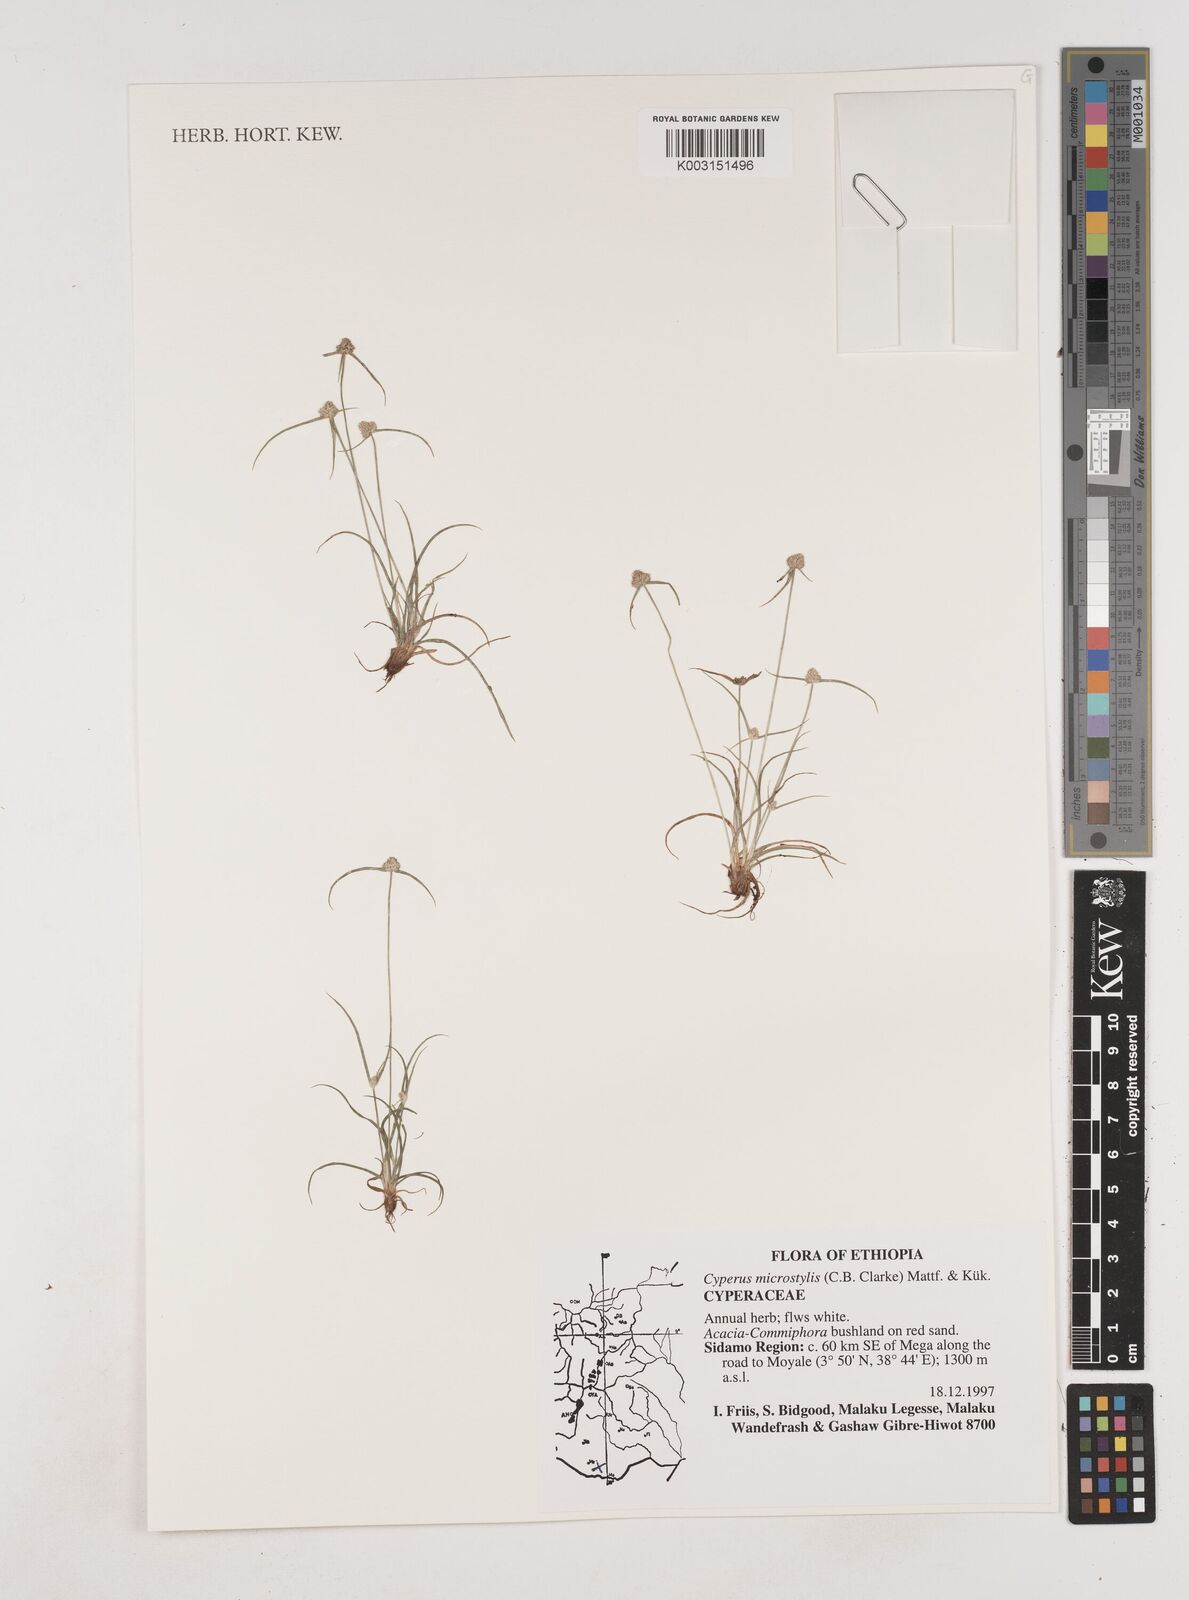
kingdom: Plantae
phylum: Tracheophyta
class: Liliopsida
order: Poales
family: Cyperaceae
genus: Cyperus
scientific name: Cyperus microstylus
